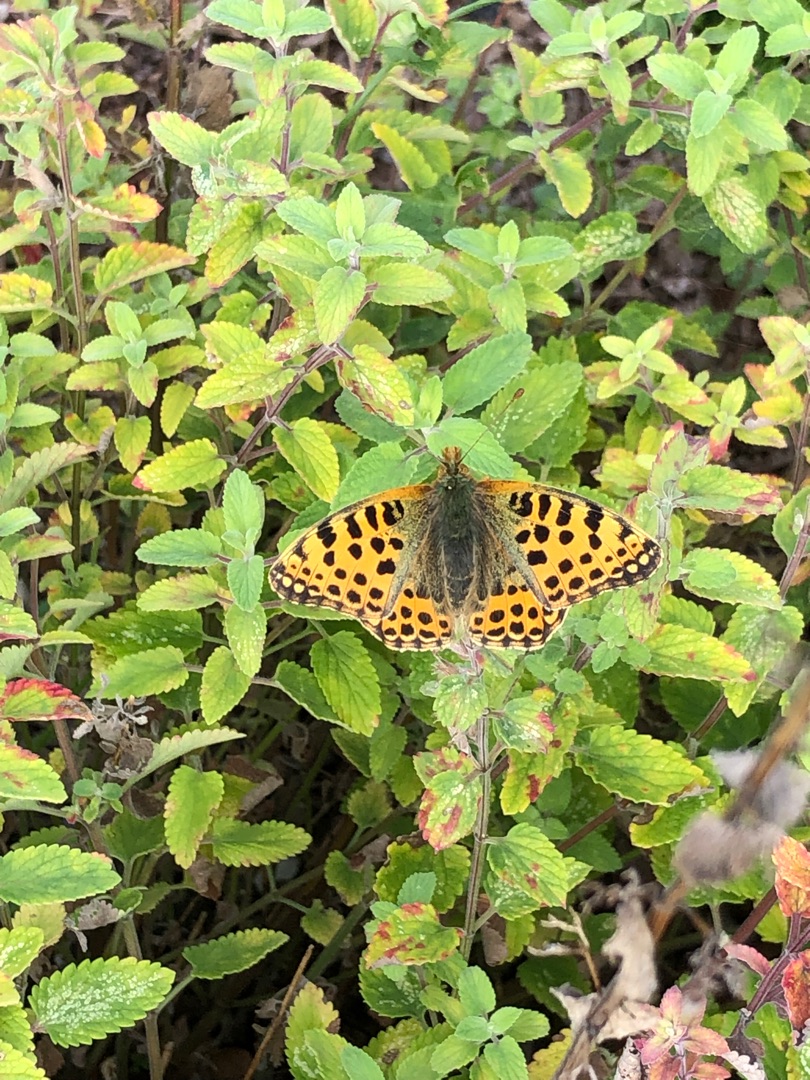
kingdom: Animalia
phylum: Arthropoda
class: Insecta
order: Lepidoptera
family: Nymphalidae
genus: Issoria
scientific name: Issoria lathonia
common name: Storplettet perlemorsommerfugl
